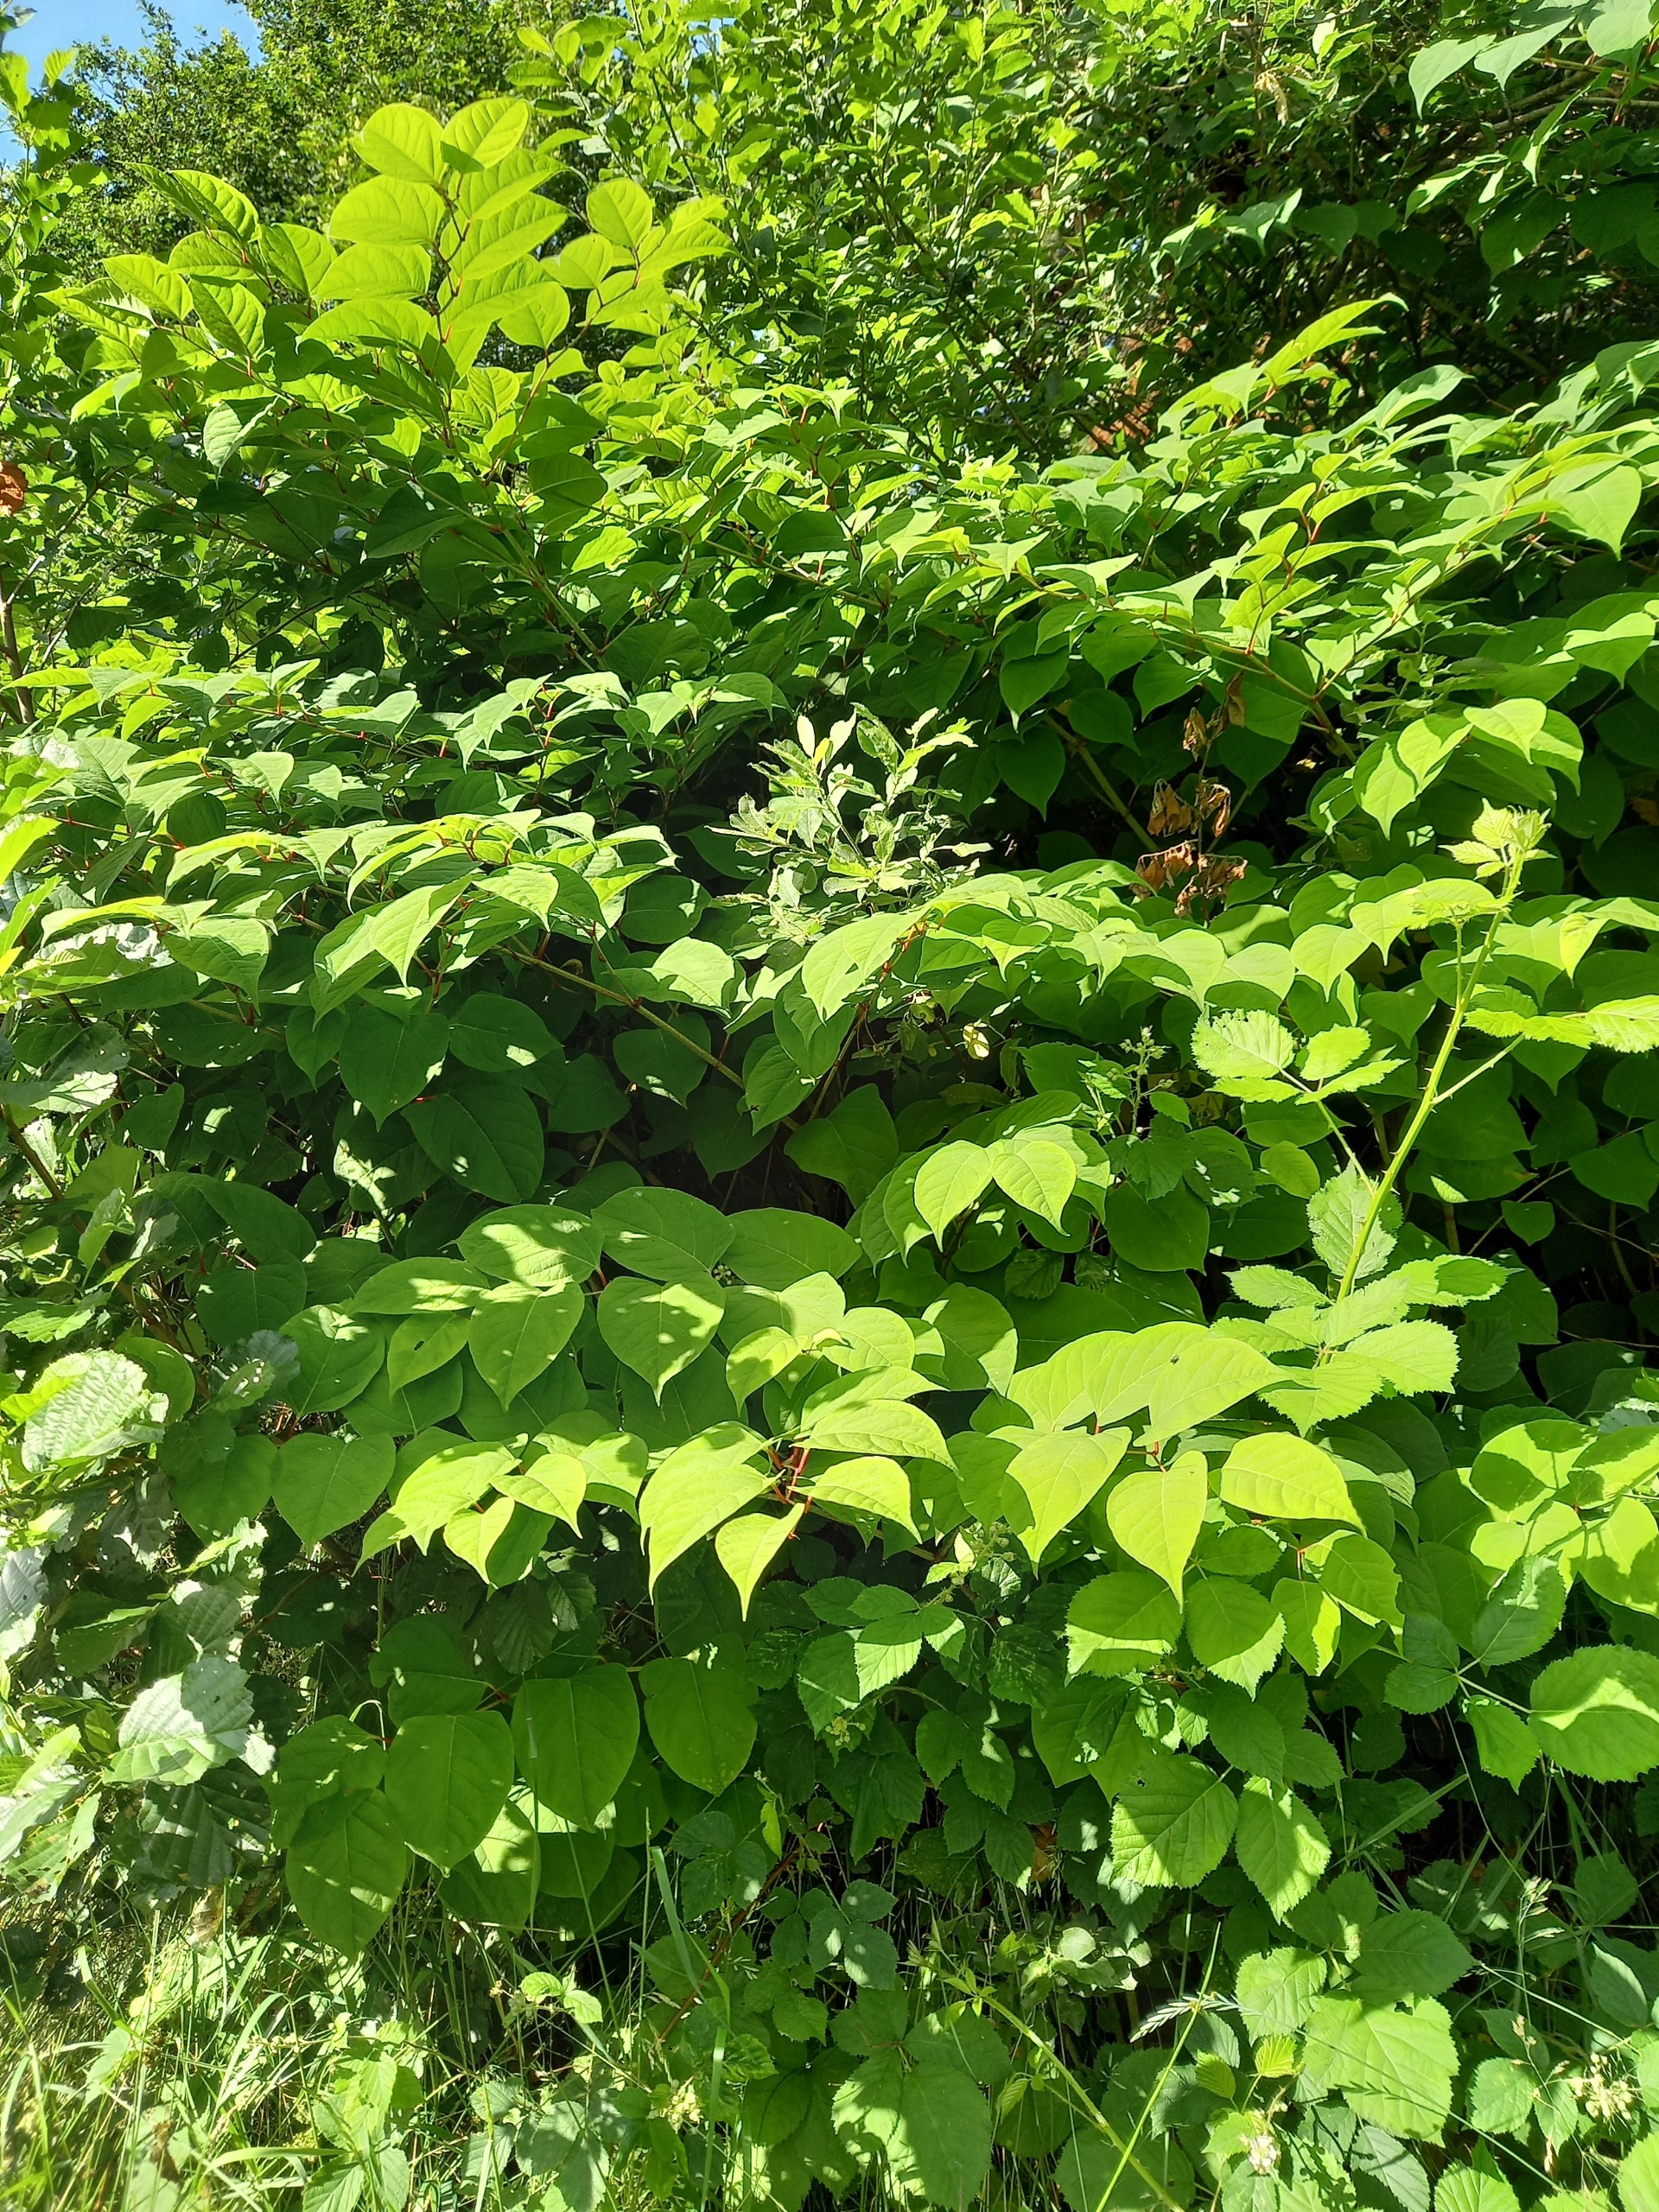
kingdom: Plantae
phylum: Tracheophyta
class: Magnoliopsida
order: Caryophyllales
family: Polygonaceae
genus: Reynoutria
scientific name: Reynoutria japonica
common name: Japan-pileurt
